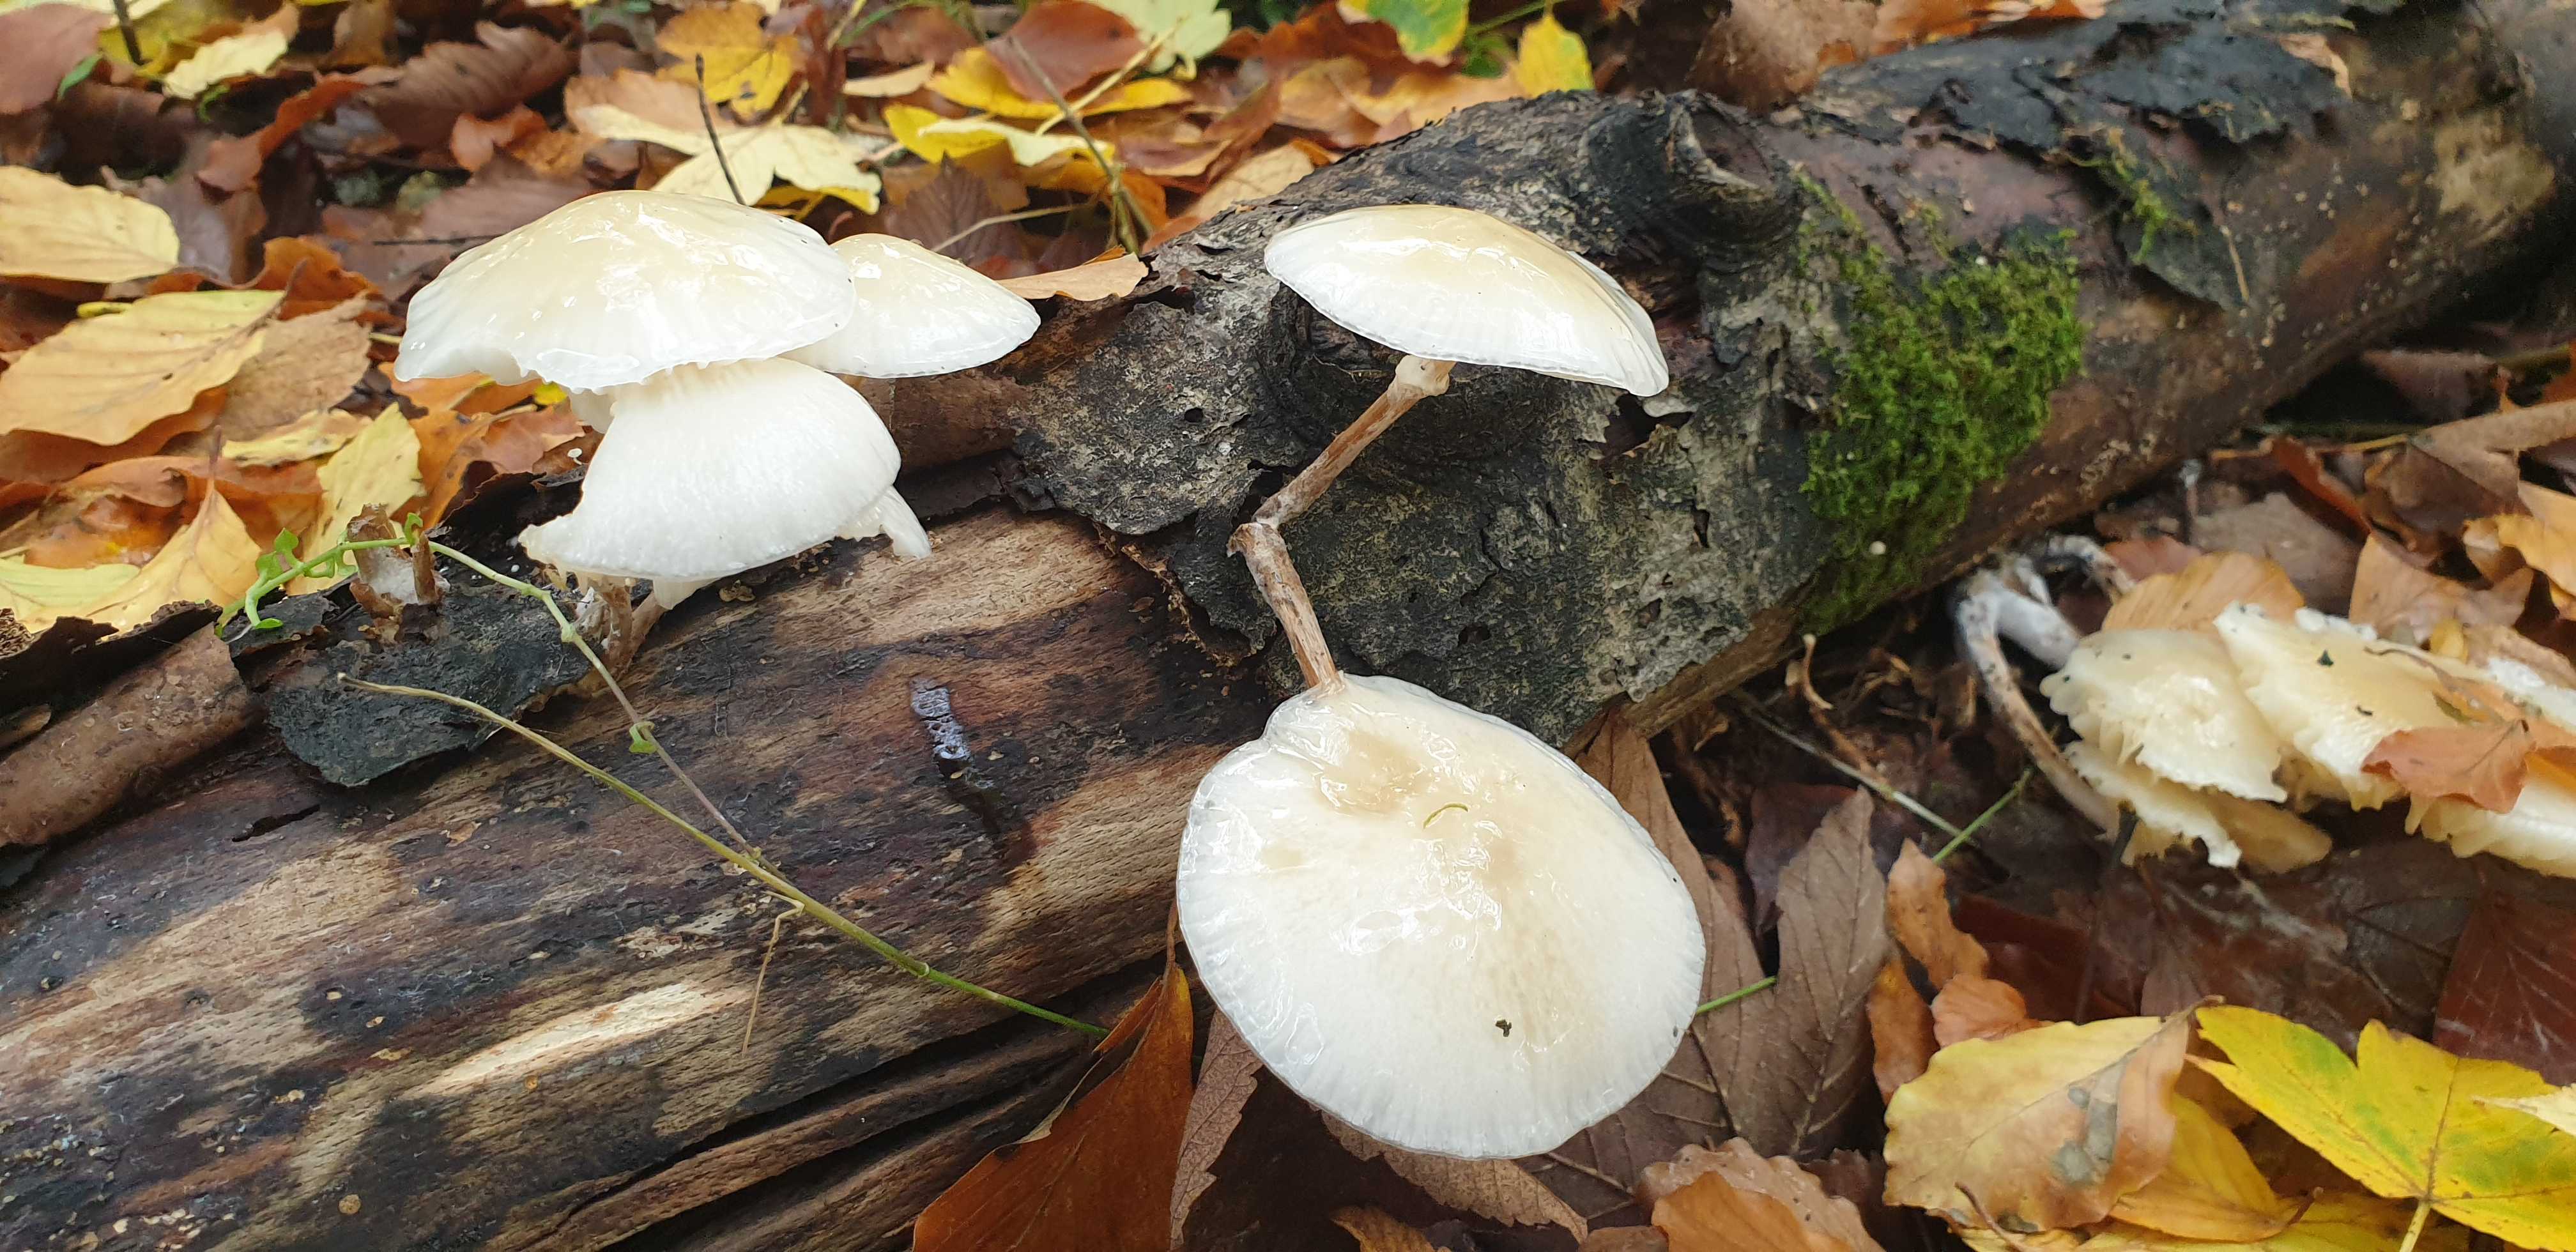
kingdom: Fungi
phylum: Basidiomycota
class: Agaricomycetes
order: Agaricales
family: Physalacriaceae
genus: Mucidula
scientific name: Mucidula mucida
